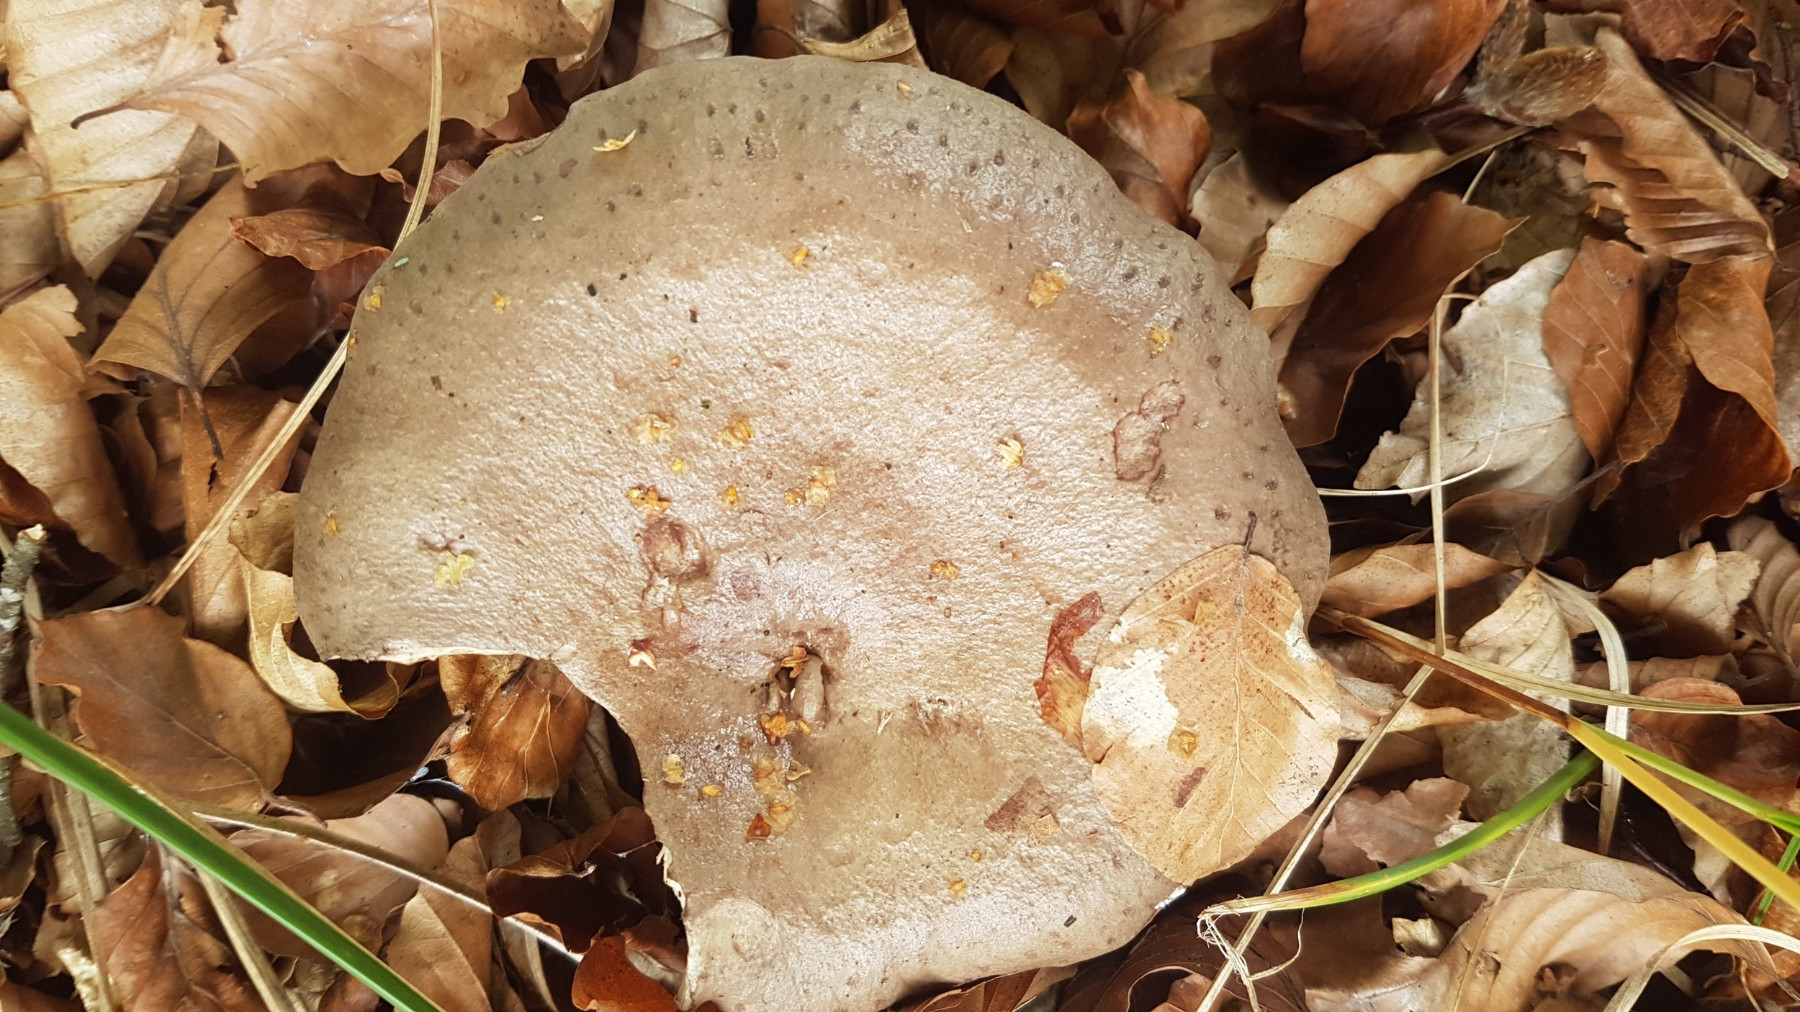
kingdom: Fungi
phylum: Basidiomycota
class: Agaricomycetes
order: Russulales
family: Russulaceae
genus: Lactarius
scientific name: Lactarius blennius
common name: dråbeplettet mælkehat
